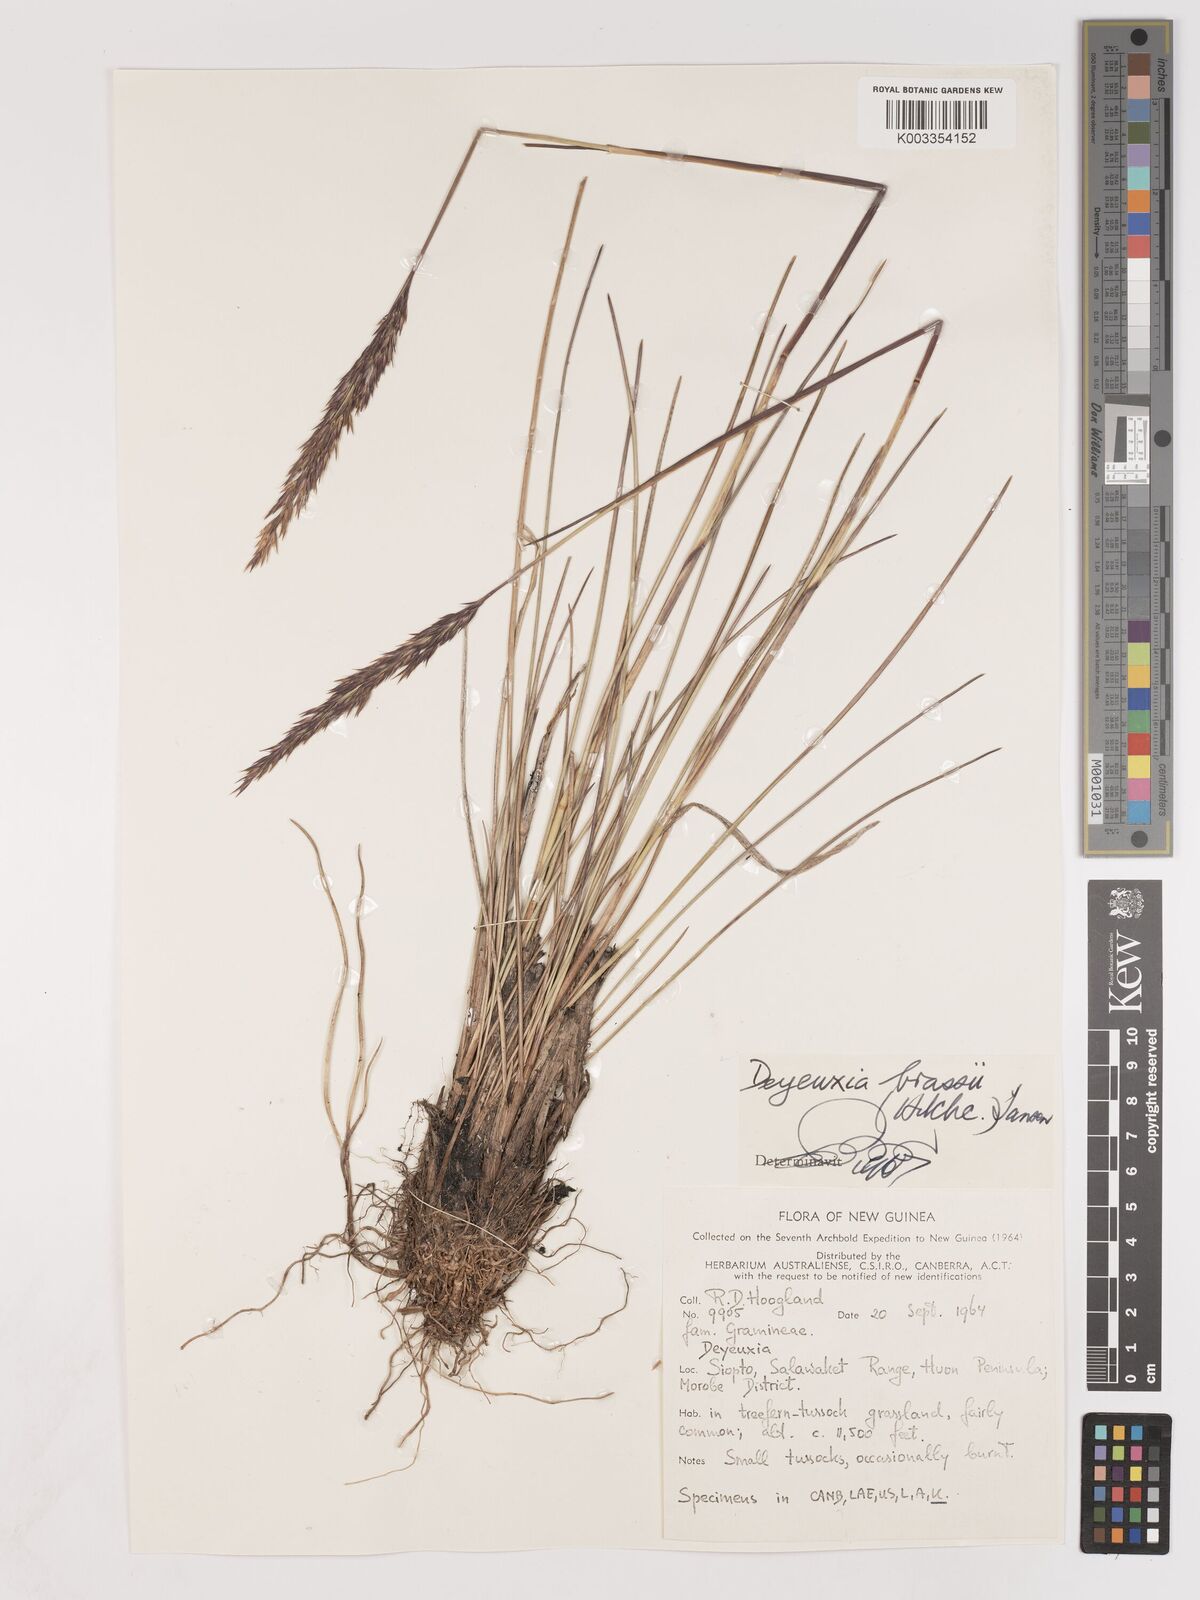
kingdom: Plantae
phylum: Tracheophyta
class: Liliopsida
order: Poales
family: Poaceae
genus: Calamagrostis
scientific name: Calamagrostis brassii
